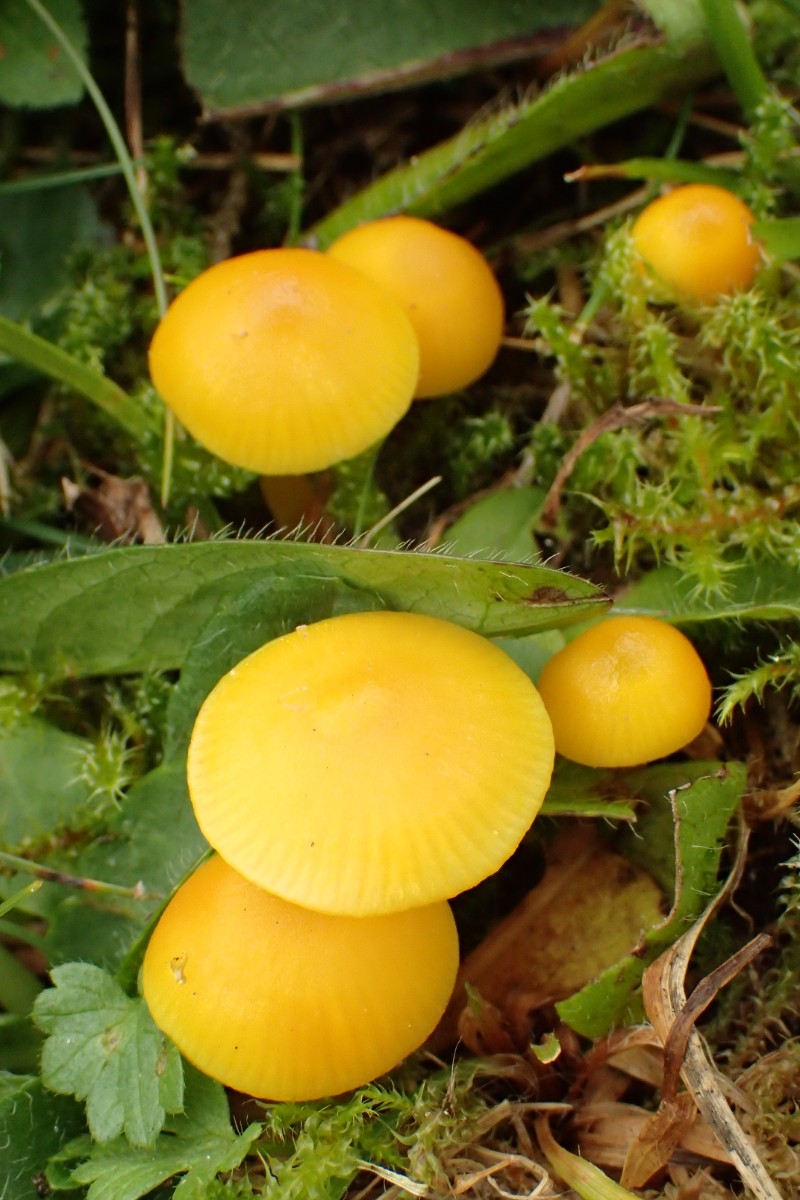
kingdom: Fungi
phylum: Basidiomycota
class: Agaricomycetes
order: Agaricales
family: Hygrophoraceae
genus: Hygrocybe
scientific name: Hygrocybe ceracea
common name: voksgul vokshat
